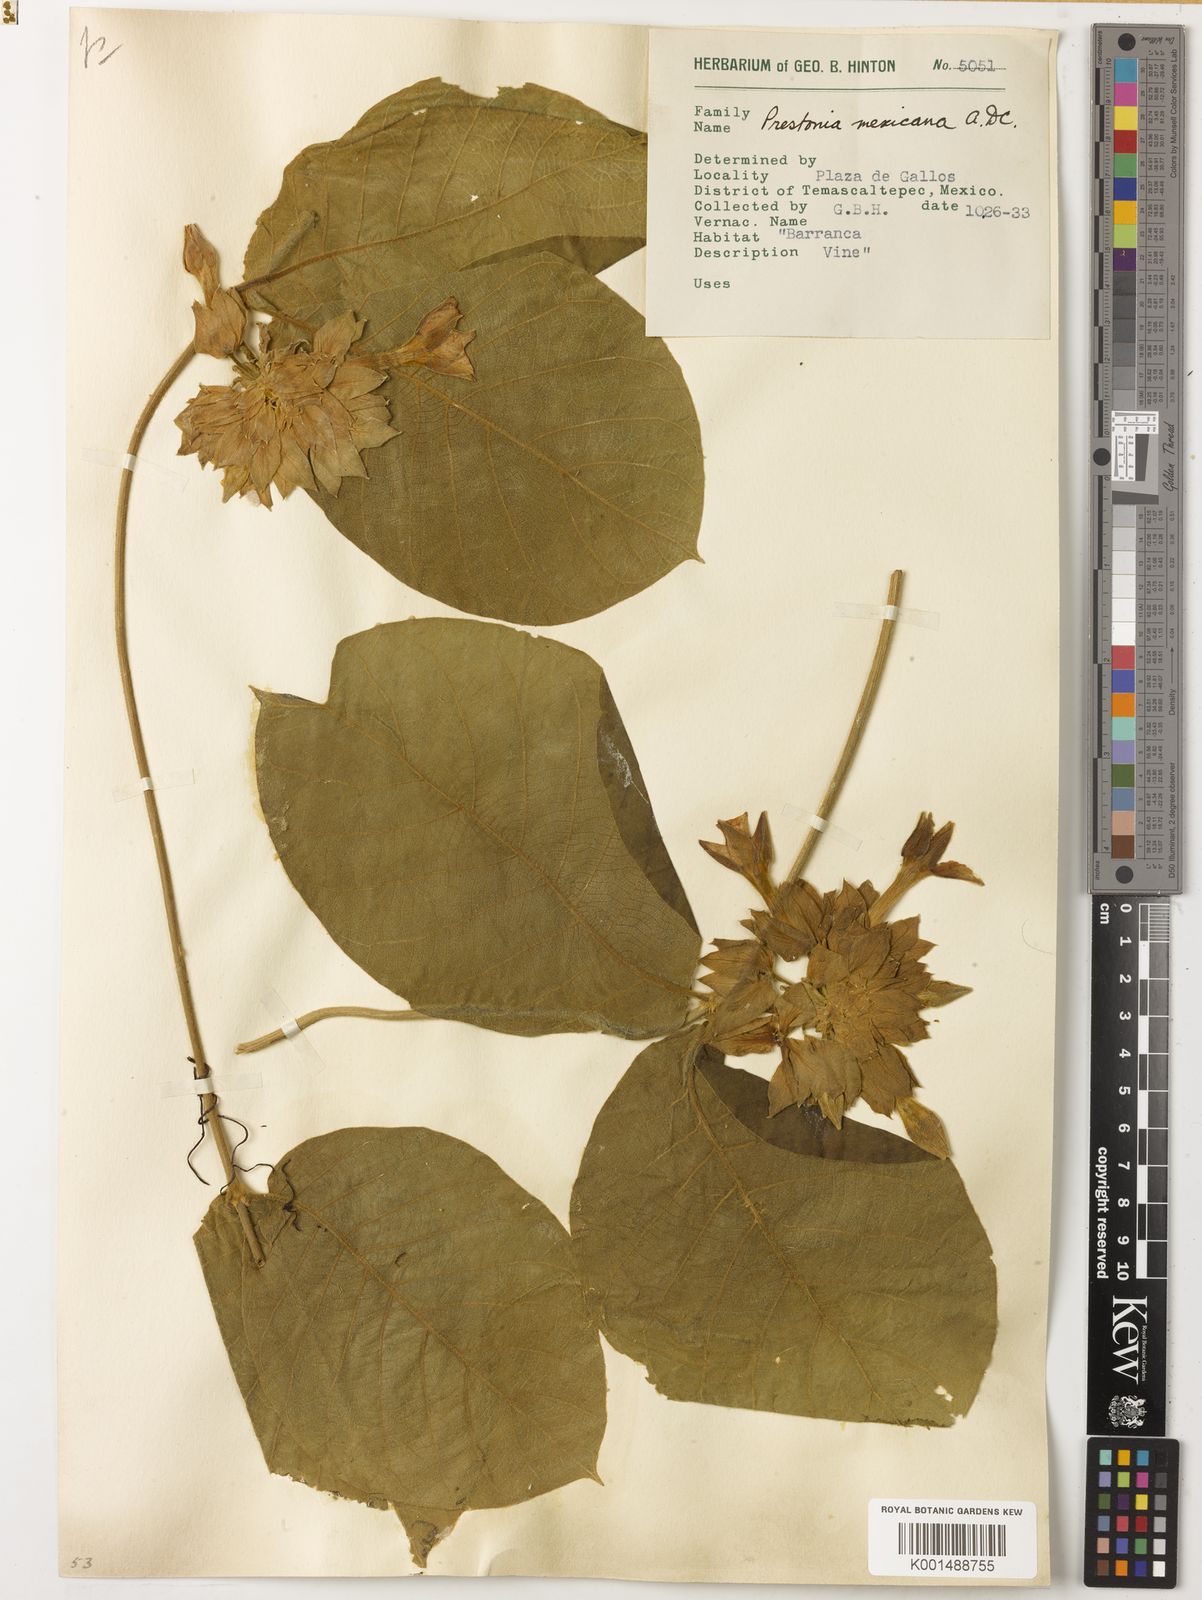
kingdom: Plantae
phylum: Tracheophyta
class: Magnoliopsida
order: Gentianales
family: Apocynaceae
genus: Prestonia
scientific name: Prestonia mexicana
